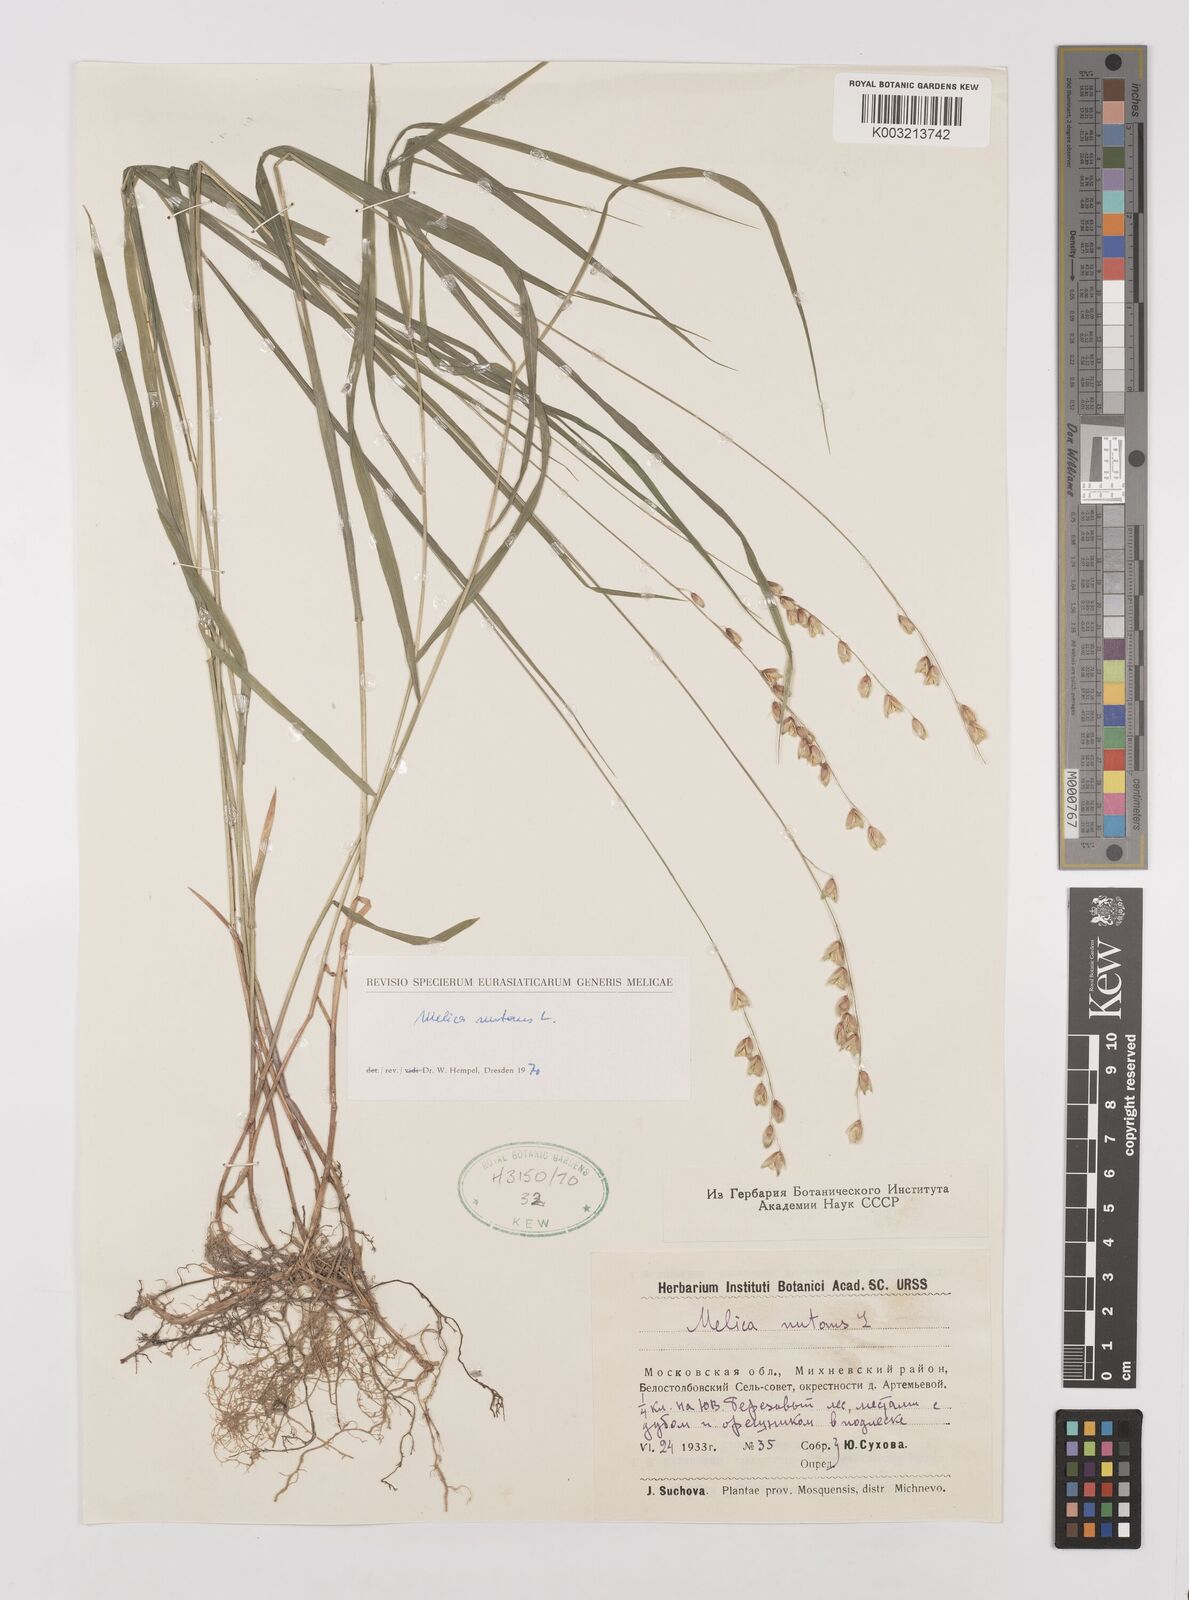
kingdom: Plantae
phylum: Tracheophyta
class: Liliopsida
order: Poales
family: Poaceae
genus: Melica
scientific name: Melica
